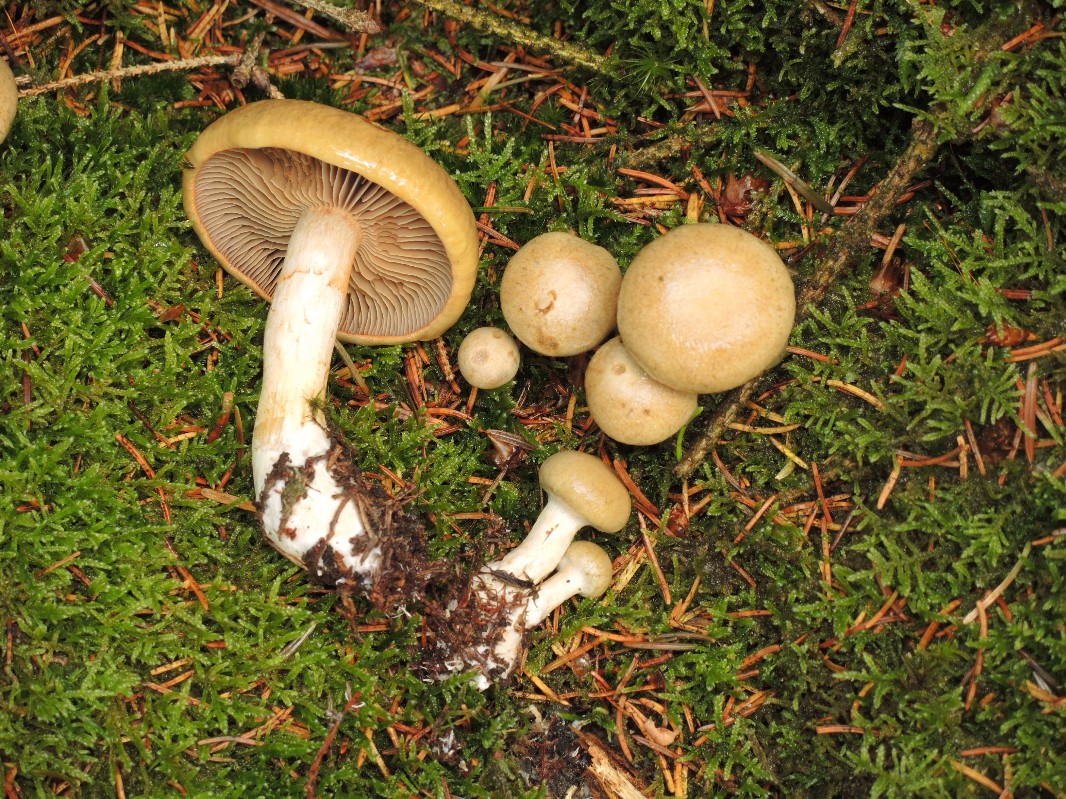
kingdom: Fungi
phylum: Basidiomycota
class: Agaricomycetes
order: Agaricales
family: Cortinariaceae
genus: Cortinarius
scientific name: Cortinarius subtortus
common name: olivengul slørhat
